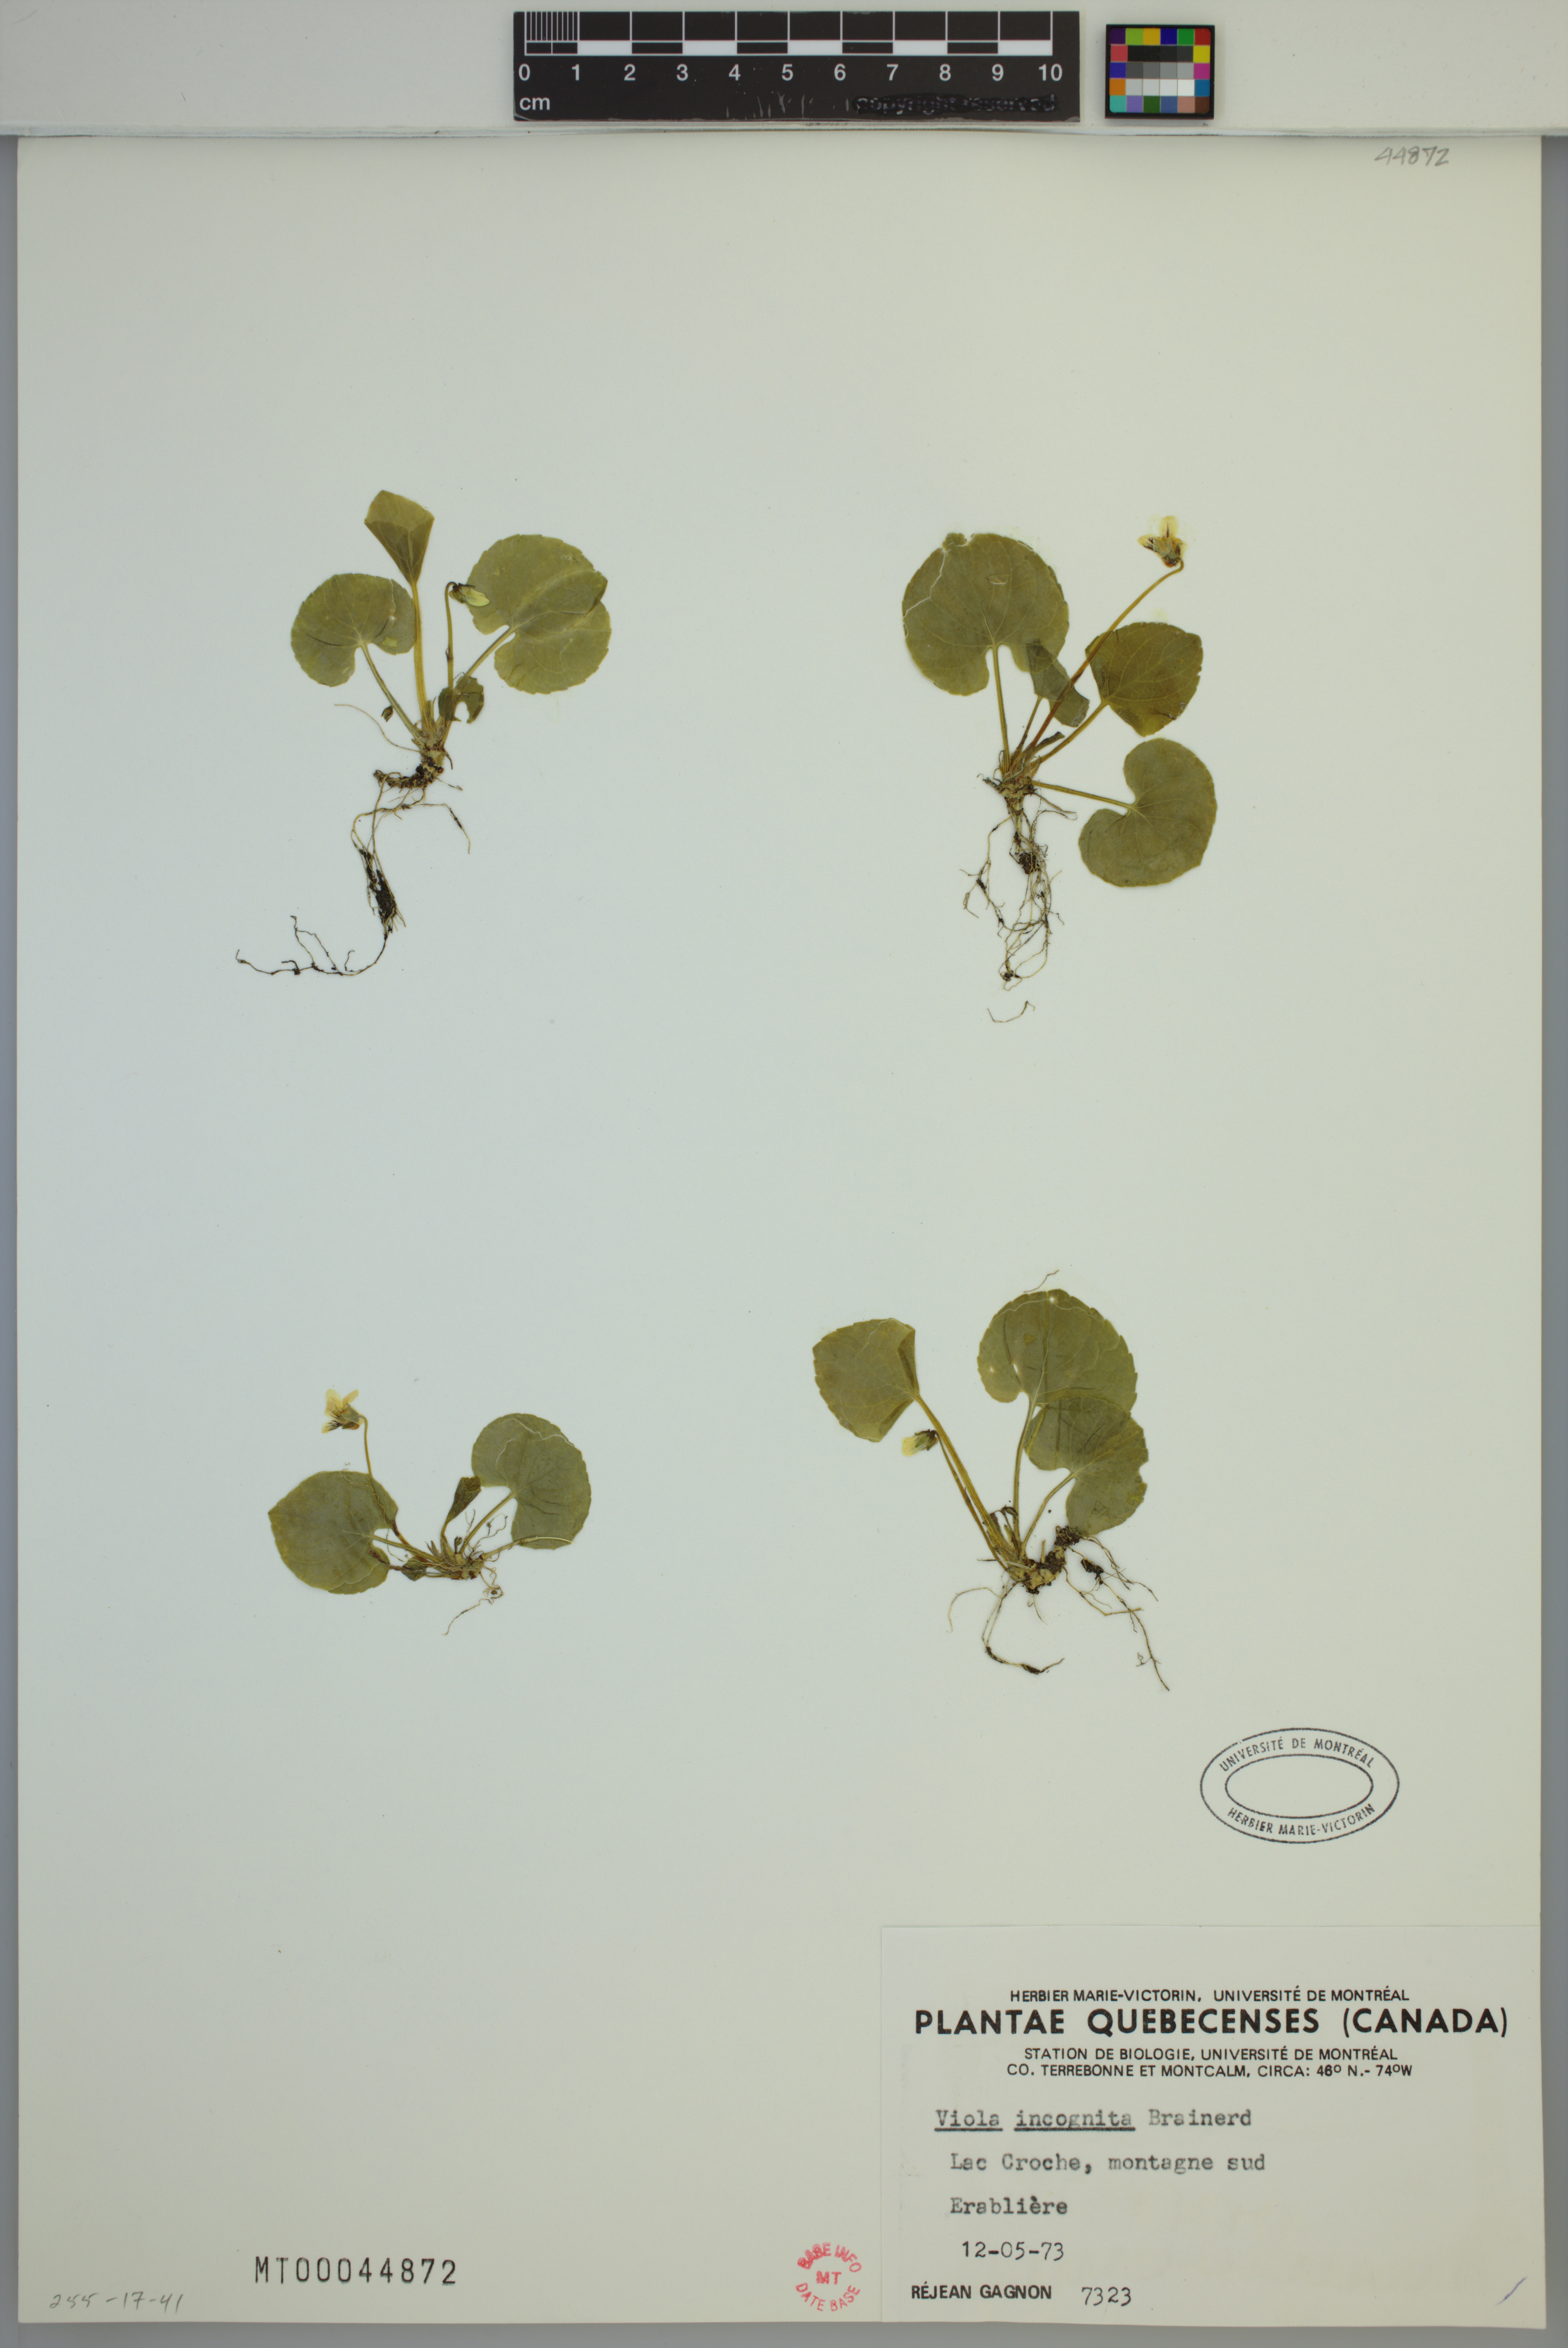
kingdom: Plantae
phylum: Tracheophyta
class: Magnoliopsida
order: Malpighiales
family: Violaceae
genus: Viola
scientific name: Viola blanda
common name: Sweet white violet
